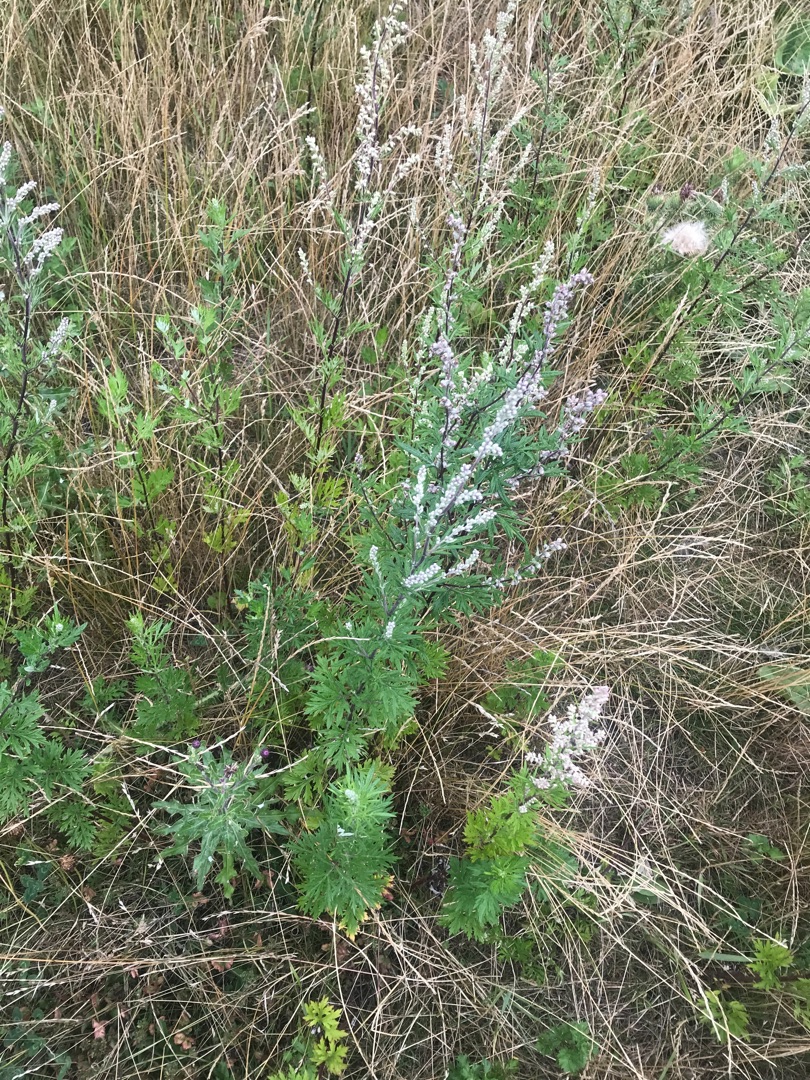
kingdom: Plantae
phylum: Tracheophyta
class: Magnoliopsida
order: Asterales
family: Asteraceae
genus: Artemisia
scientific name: Artemisia vulgaris
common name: Grå-bynke
